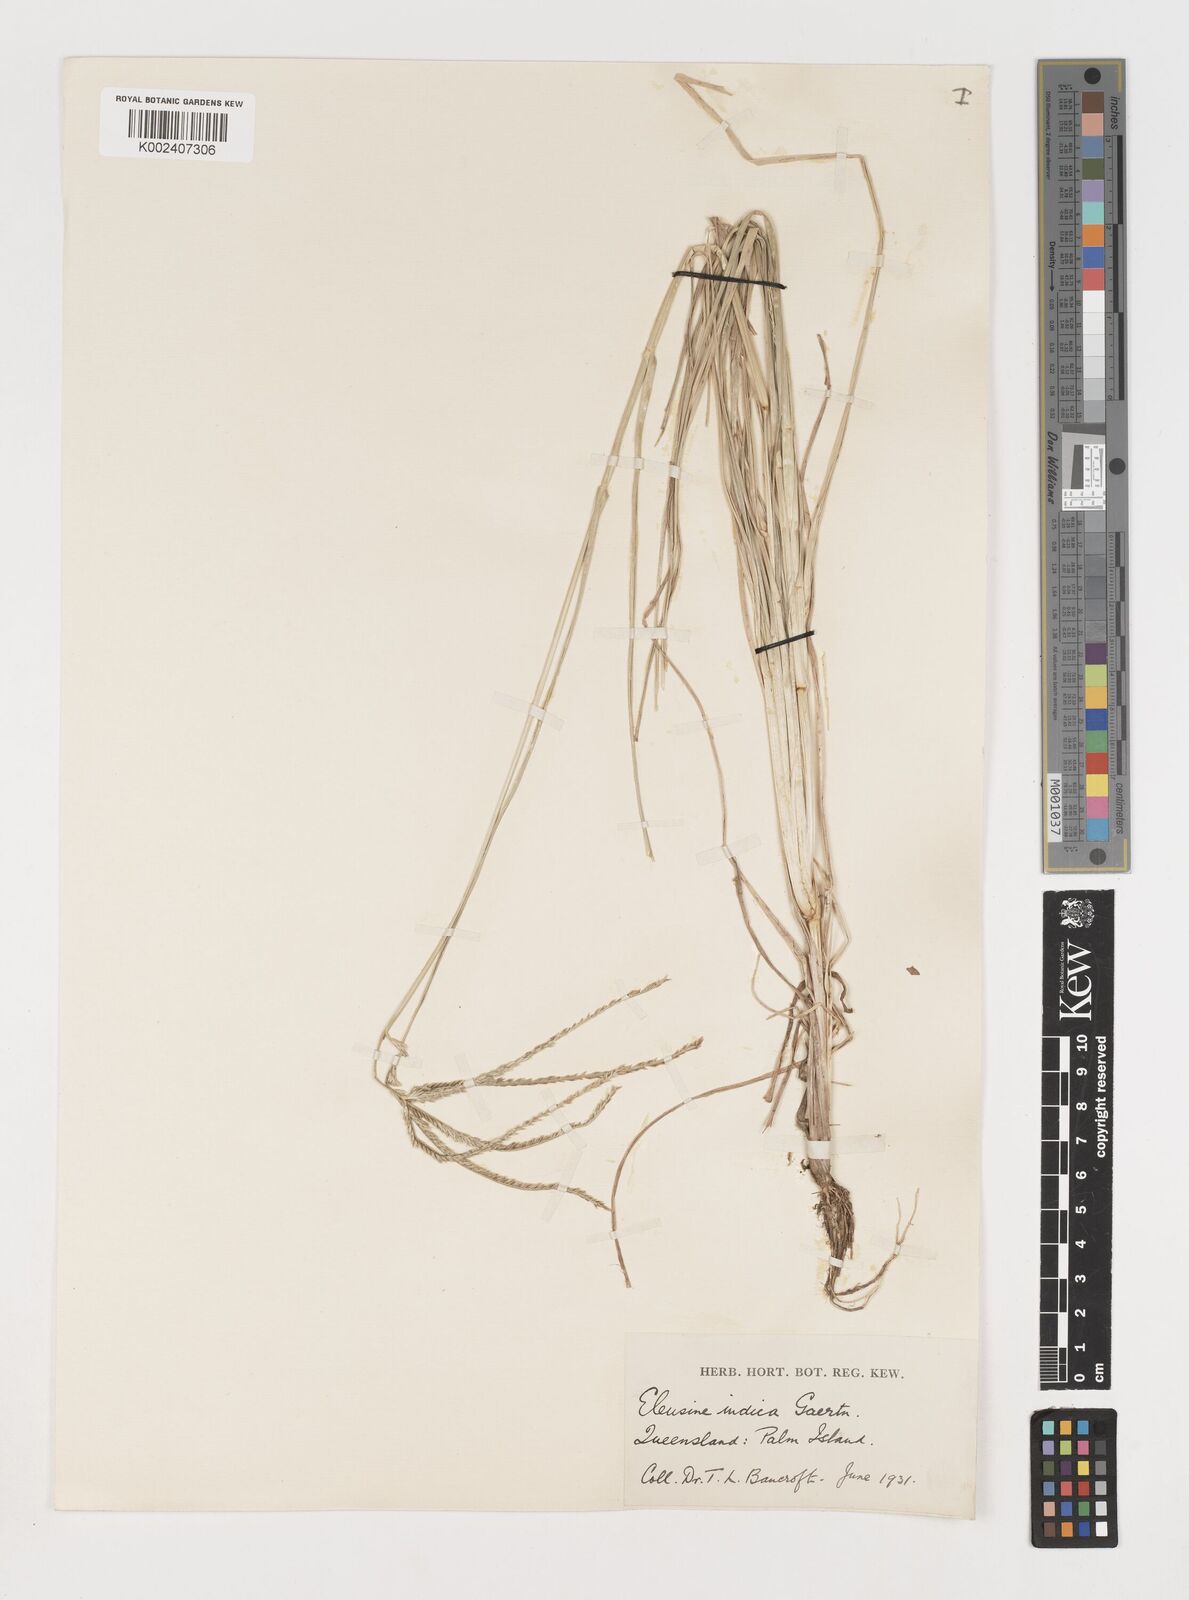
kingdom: Plantae
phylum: Tracheophyta
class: Liliopsida
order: Poales
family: Poaceae
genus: Eleusine
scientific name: Eleusine indica
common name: Yard-grass
